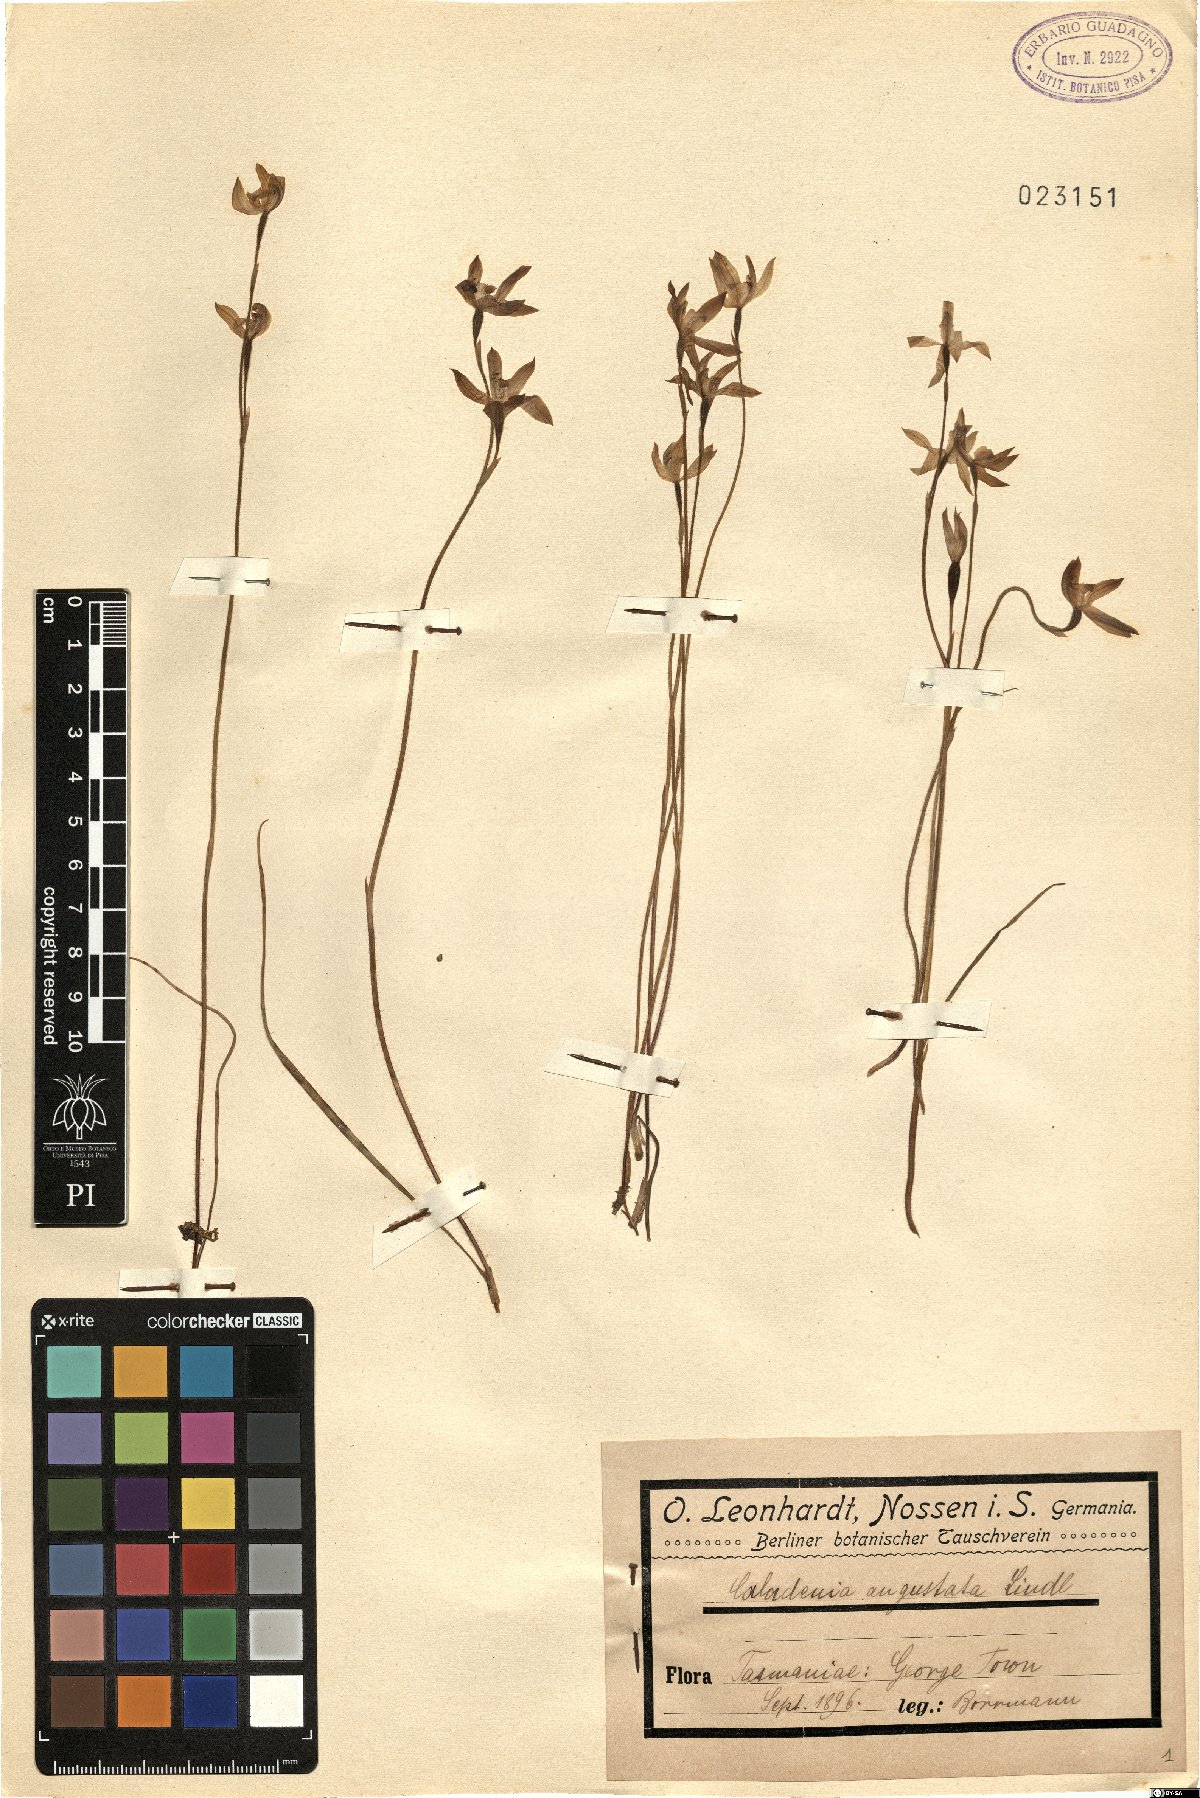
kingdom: Plantae
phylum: Tracheophyta
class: Liliopsida
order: Asparagales
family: Orchidaceae
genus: Caladenia
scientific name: Caladenia angustata
